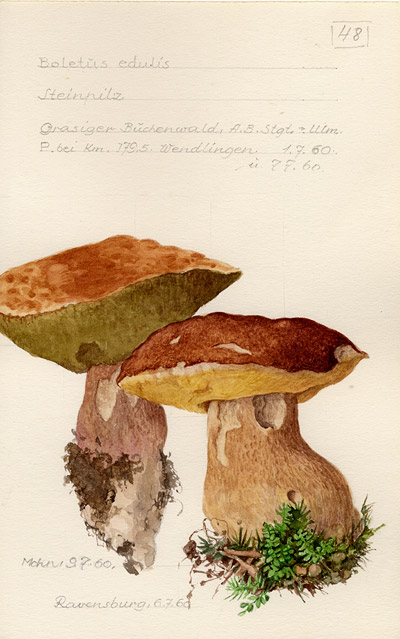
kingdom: Fungi
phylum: Basidiomycota
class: Agaricomycetes
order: Boletales
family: Boletaceae
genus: Boletus
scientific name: Boletus edulis
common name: Cep
